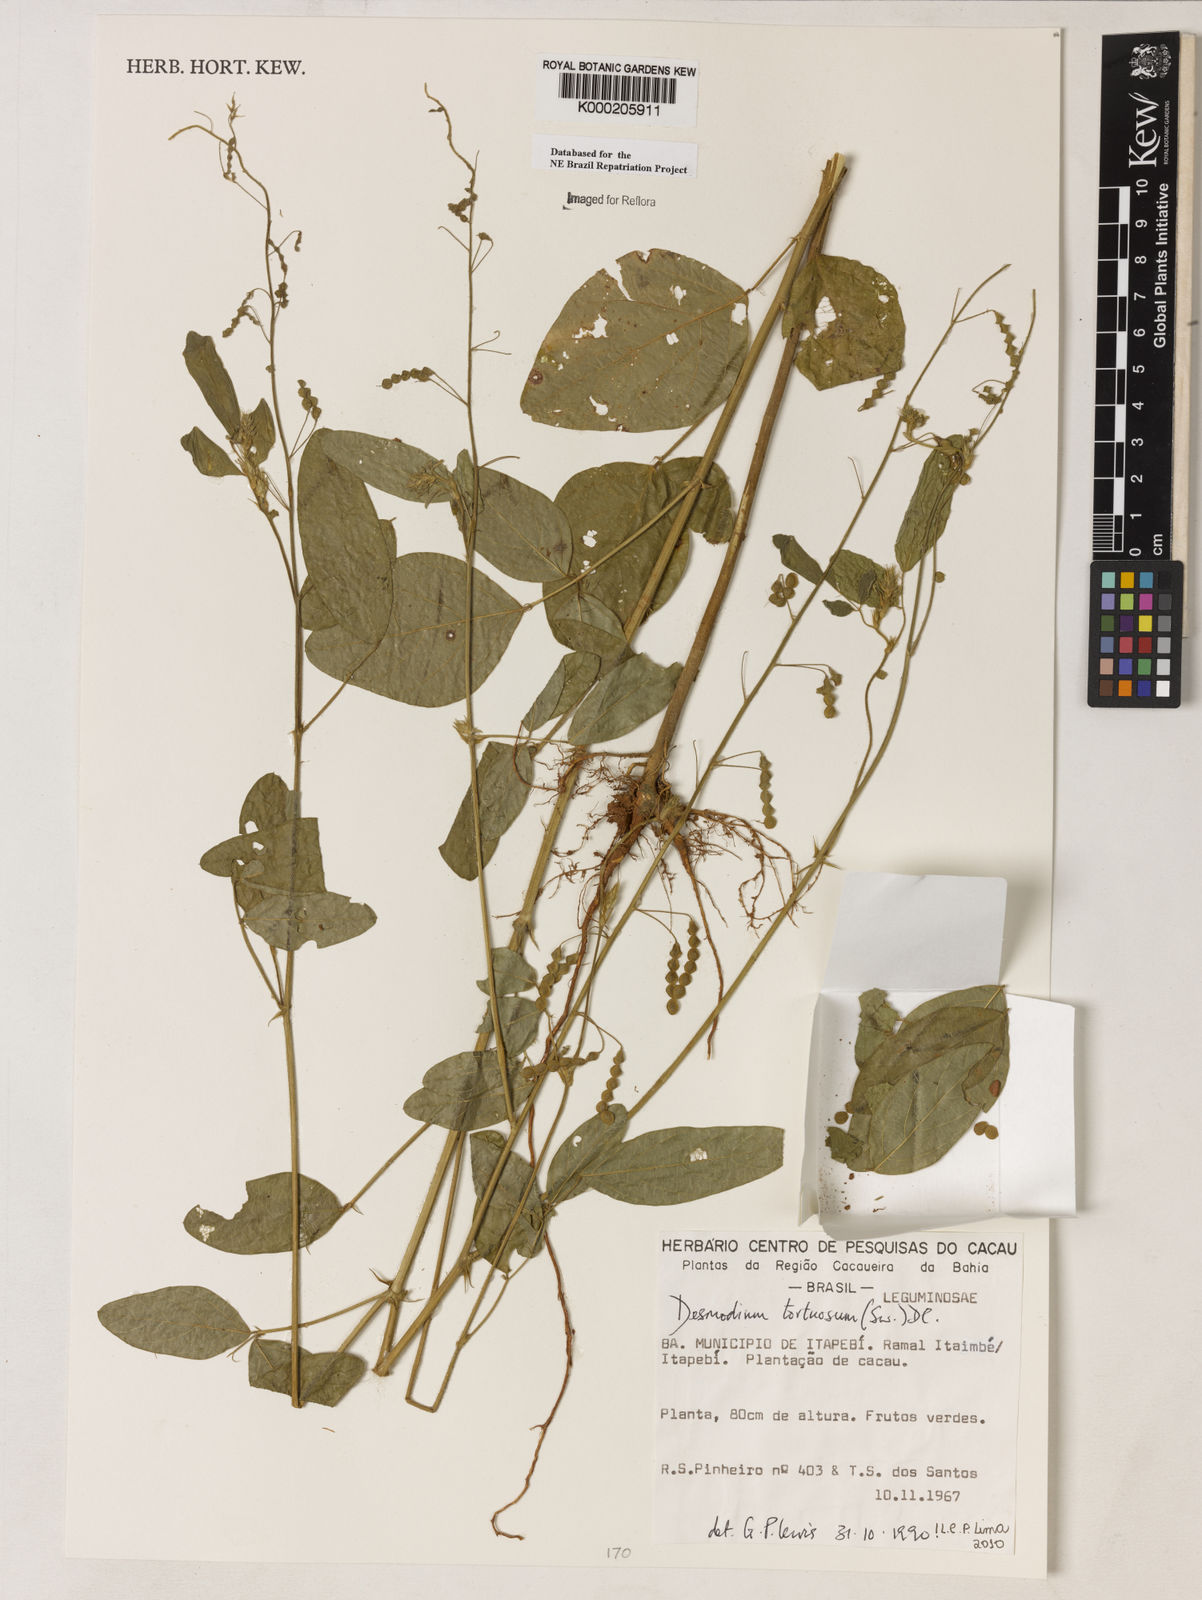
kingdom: Plantae
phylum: Tracheophyta
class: Magnoliopsida
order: Fabales
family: Fabaceae
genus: Desmodium
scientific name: Desmodium tortuosum
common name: Dixie ticktrefoil
